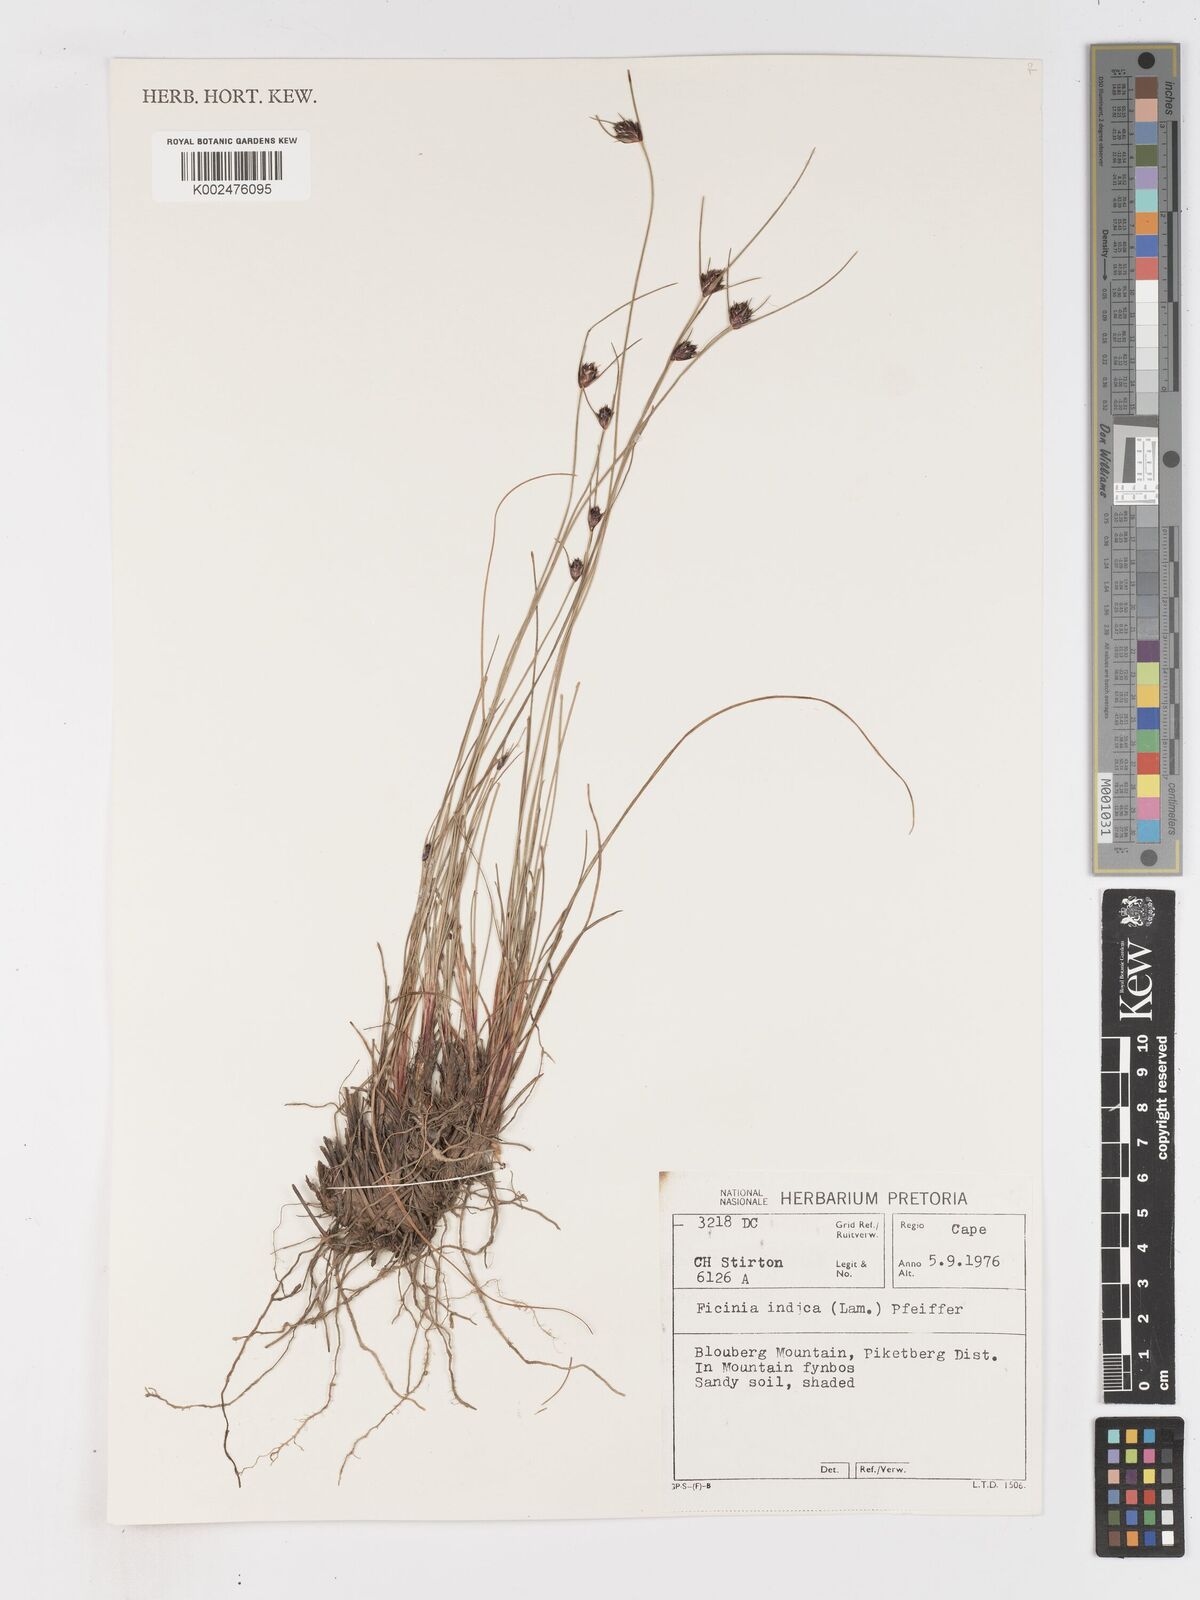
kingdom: Plantae
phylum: Tracheophyta
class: Liliopsida
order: Poales
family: Cyperaceae
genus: Ficinia
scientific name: Ficinia indica
